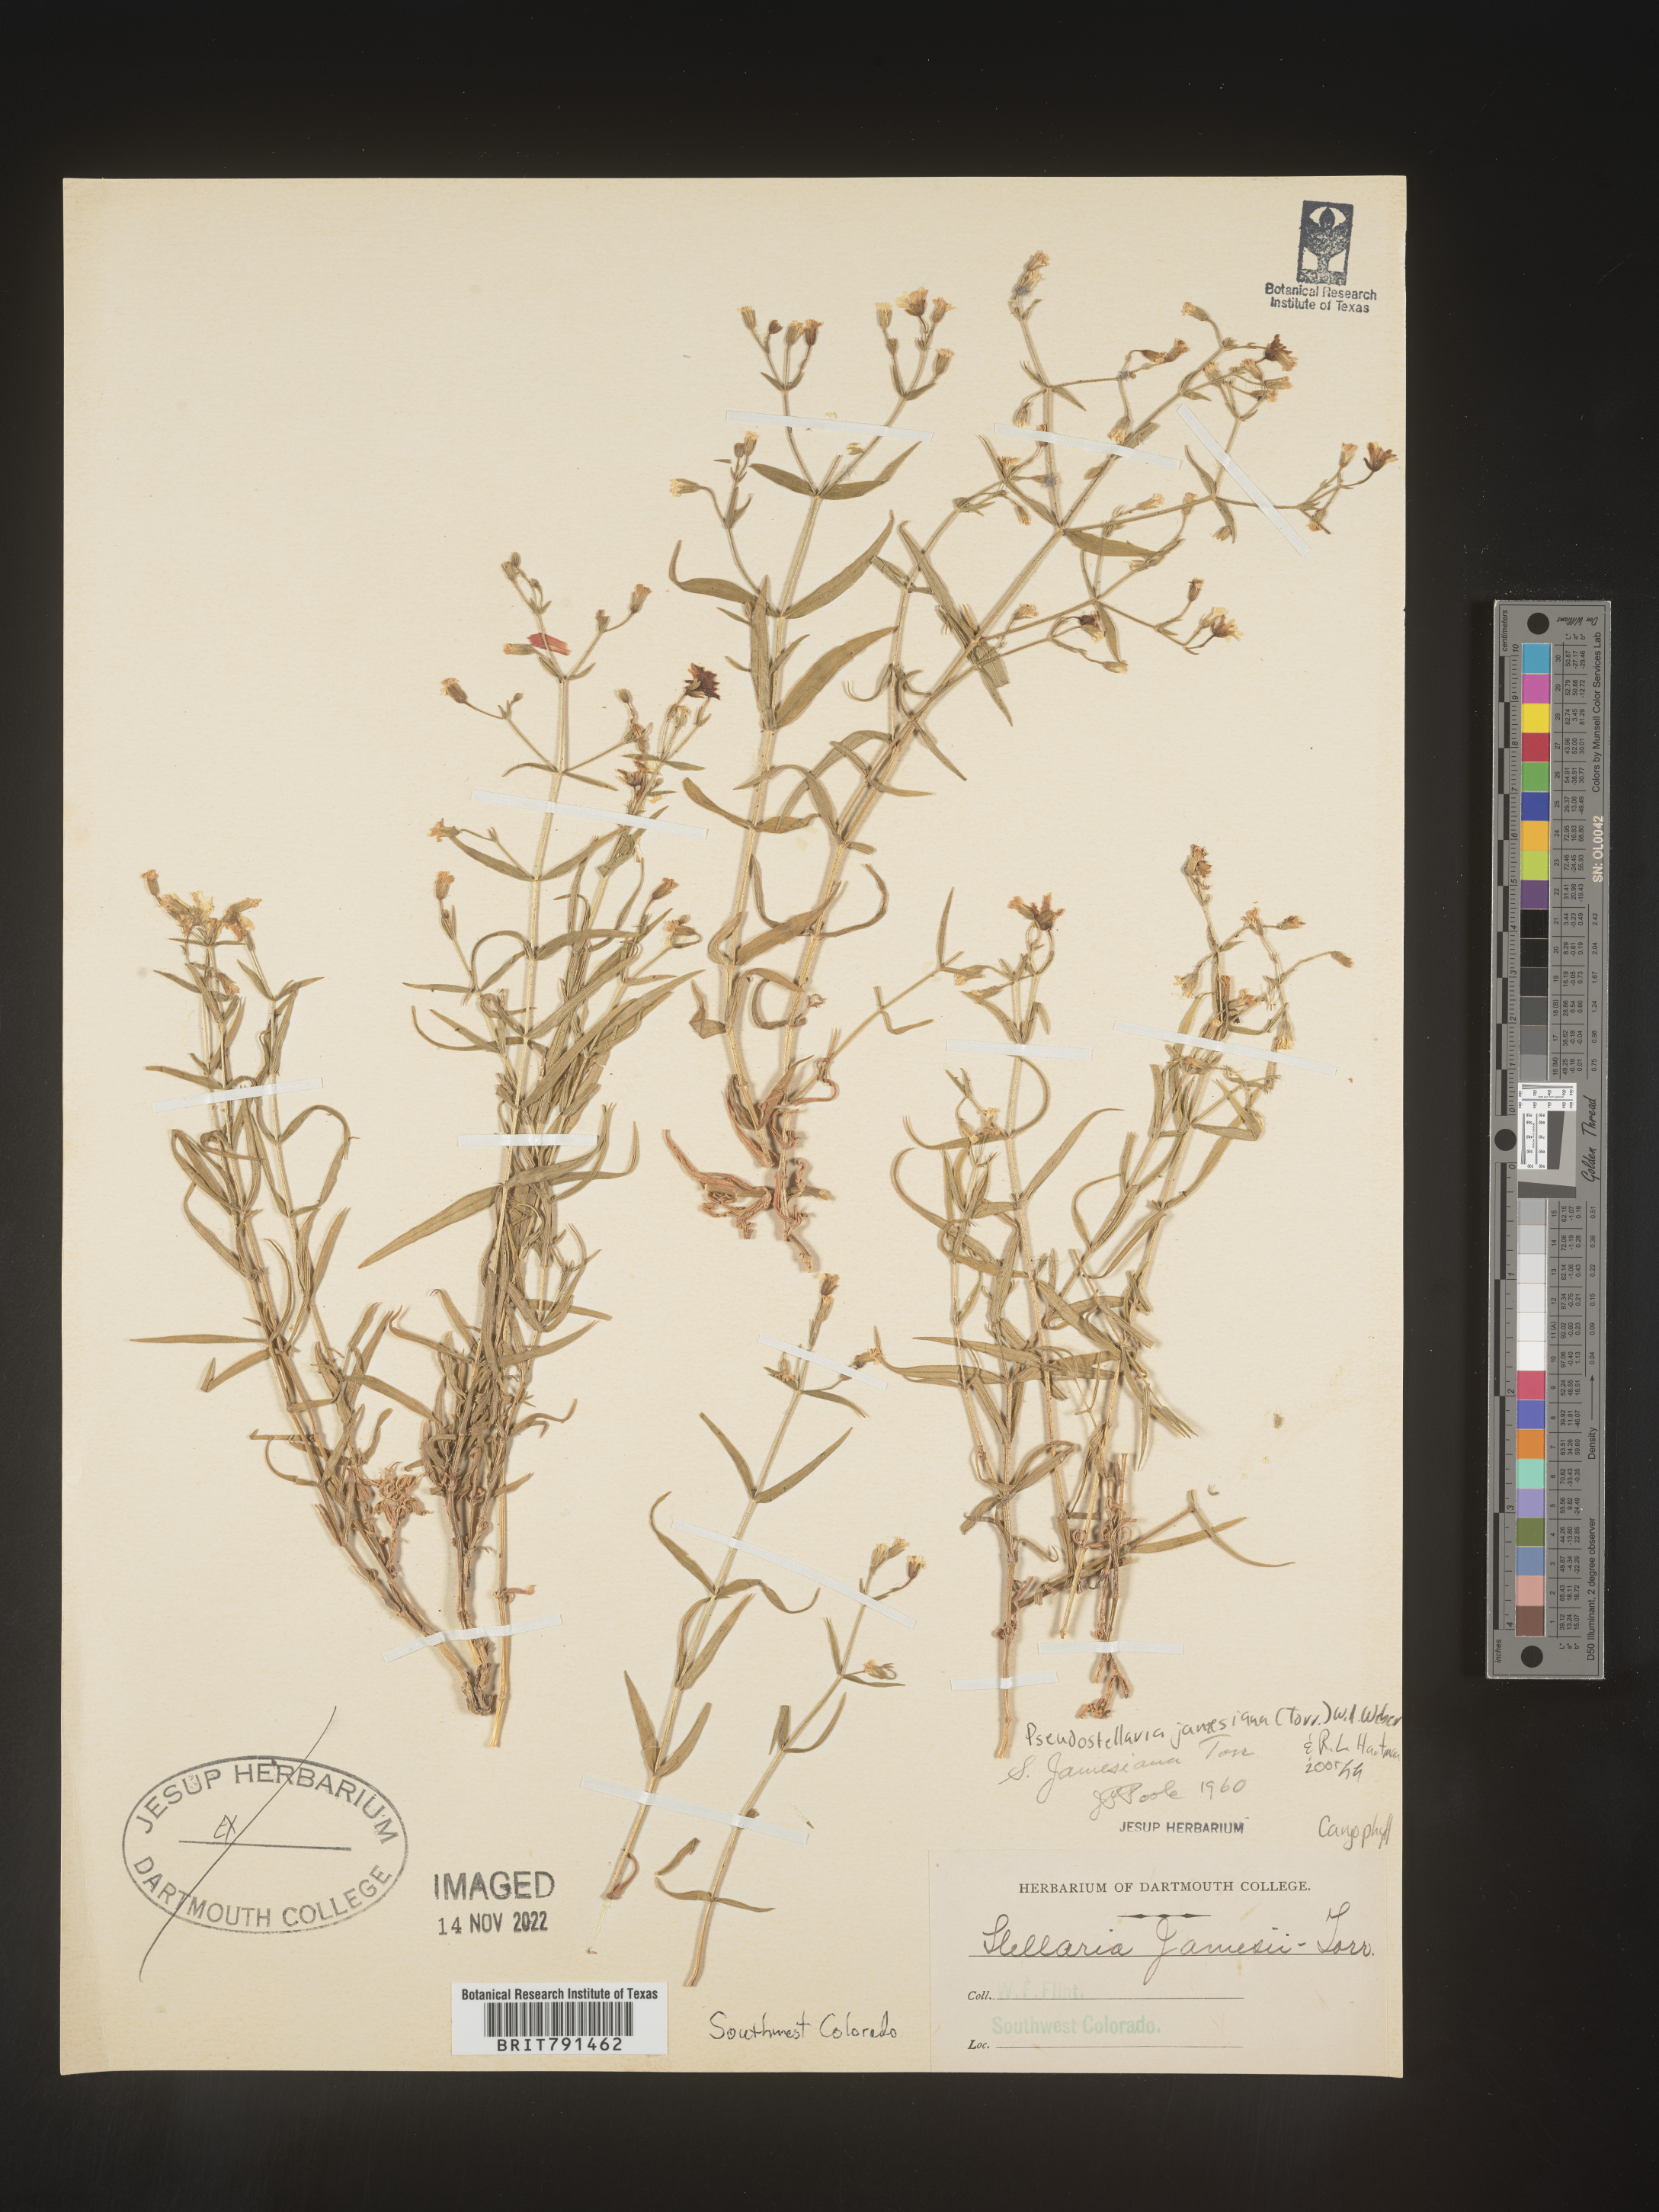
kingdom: Plantae
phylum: Tracheophyta
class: Magnoliopsida
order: Caryophyllales
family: Caryophyllaceae
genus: Pseudostellaria
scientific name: Pseudostellaria
